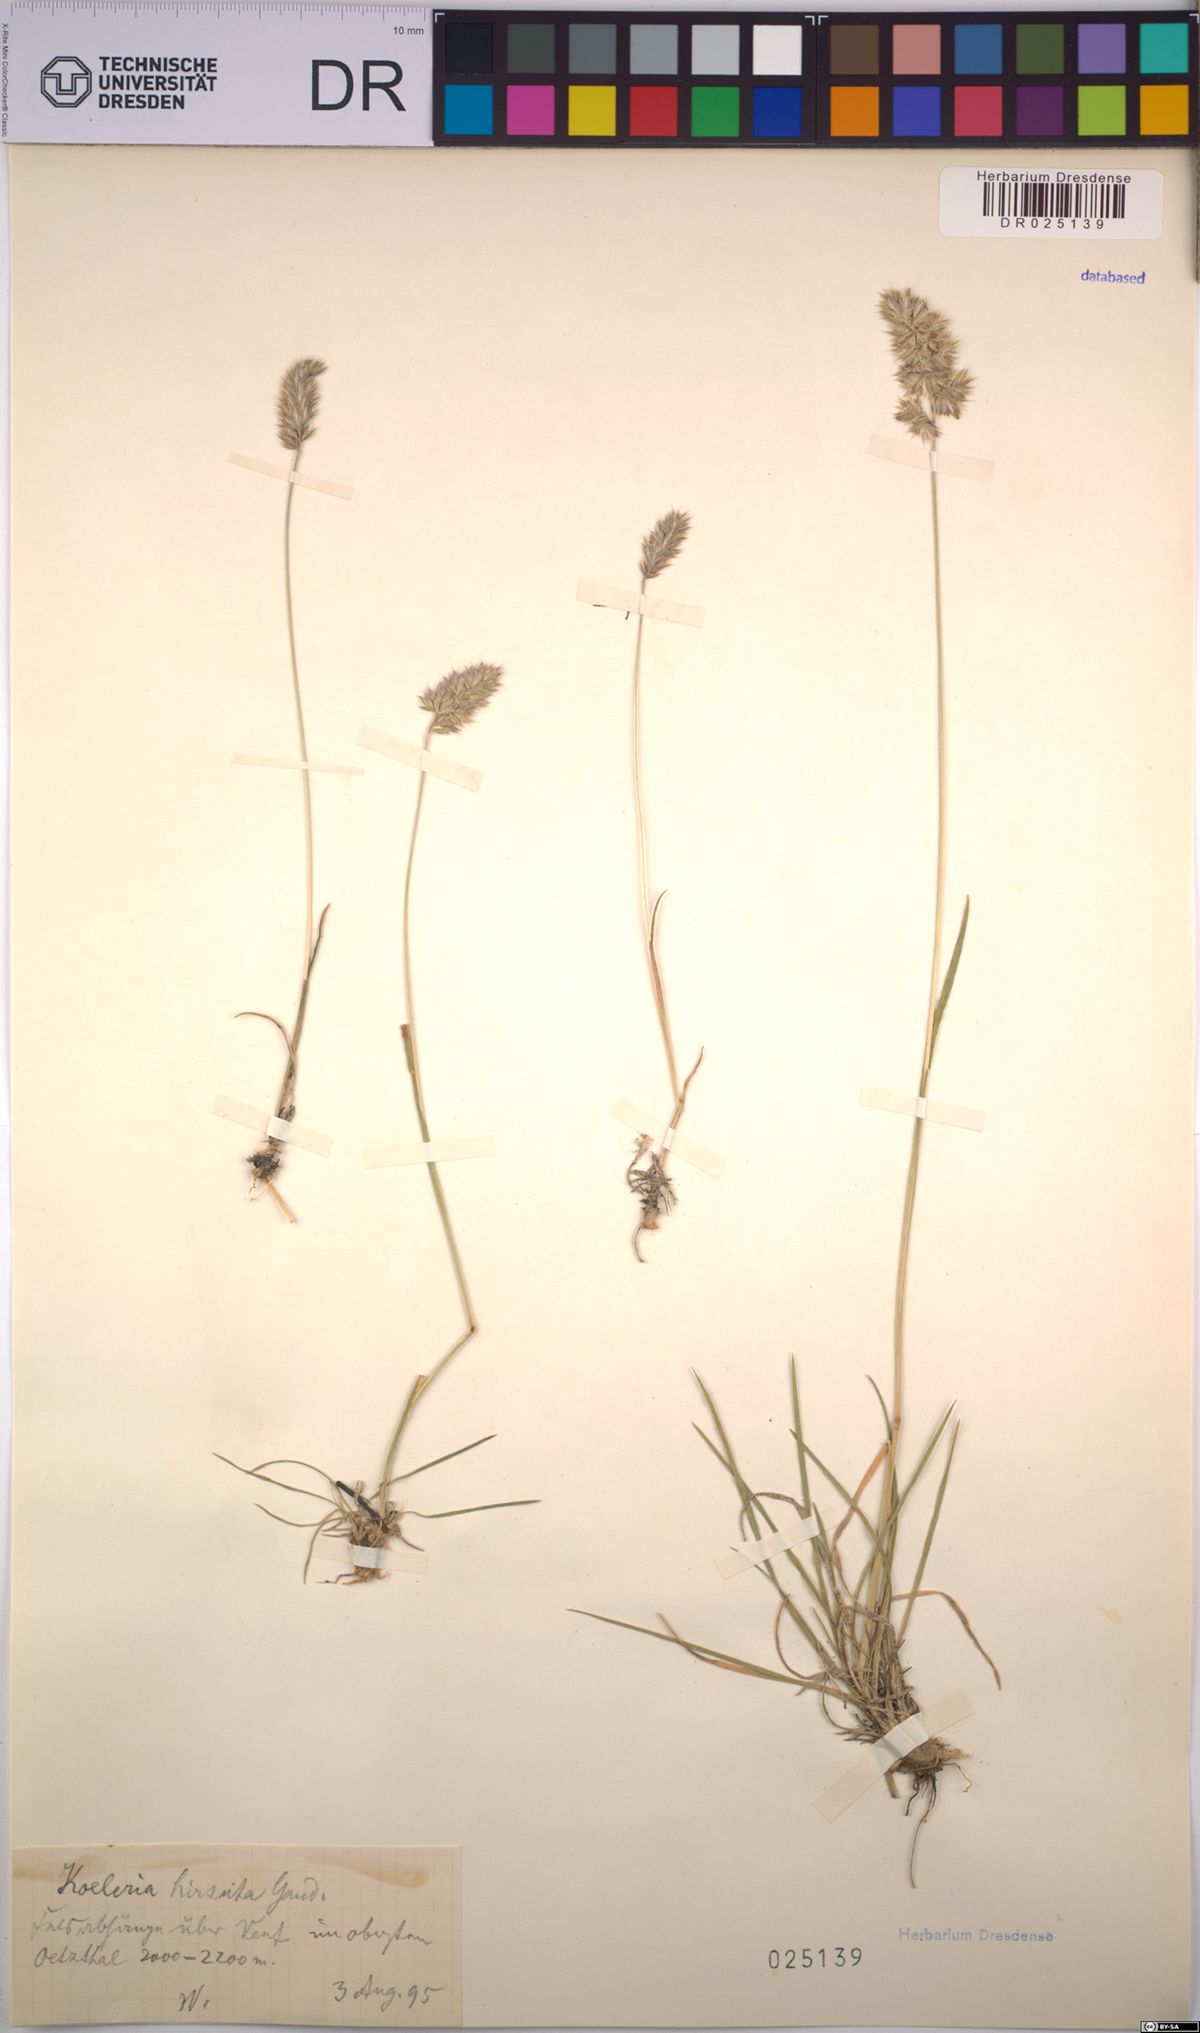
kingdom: Plantae
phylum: Tracheophyta
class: Liliopsida
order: Poales
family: Poaceae
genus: Koeleria
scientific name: Koeleria hirsuta
